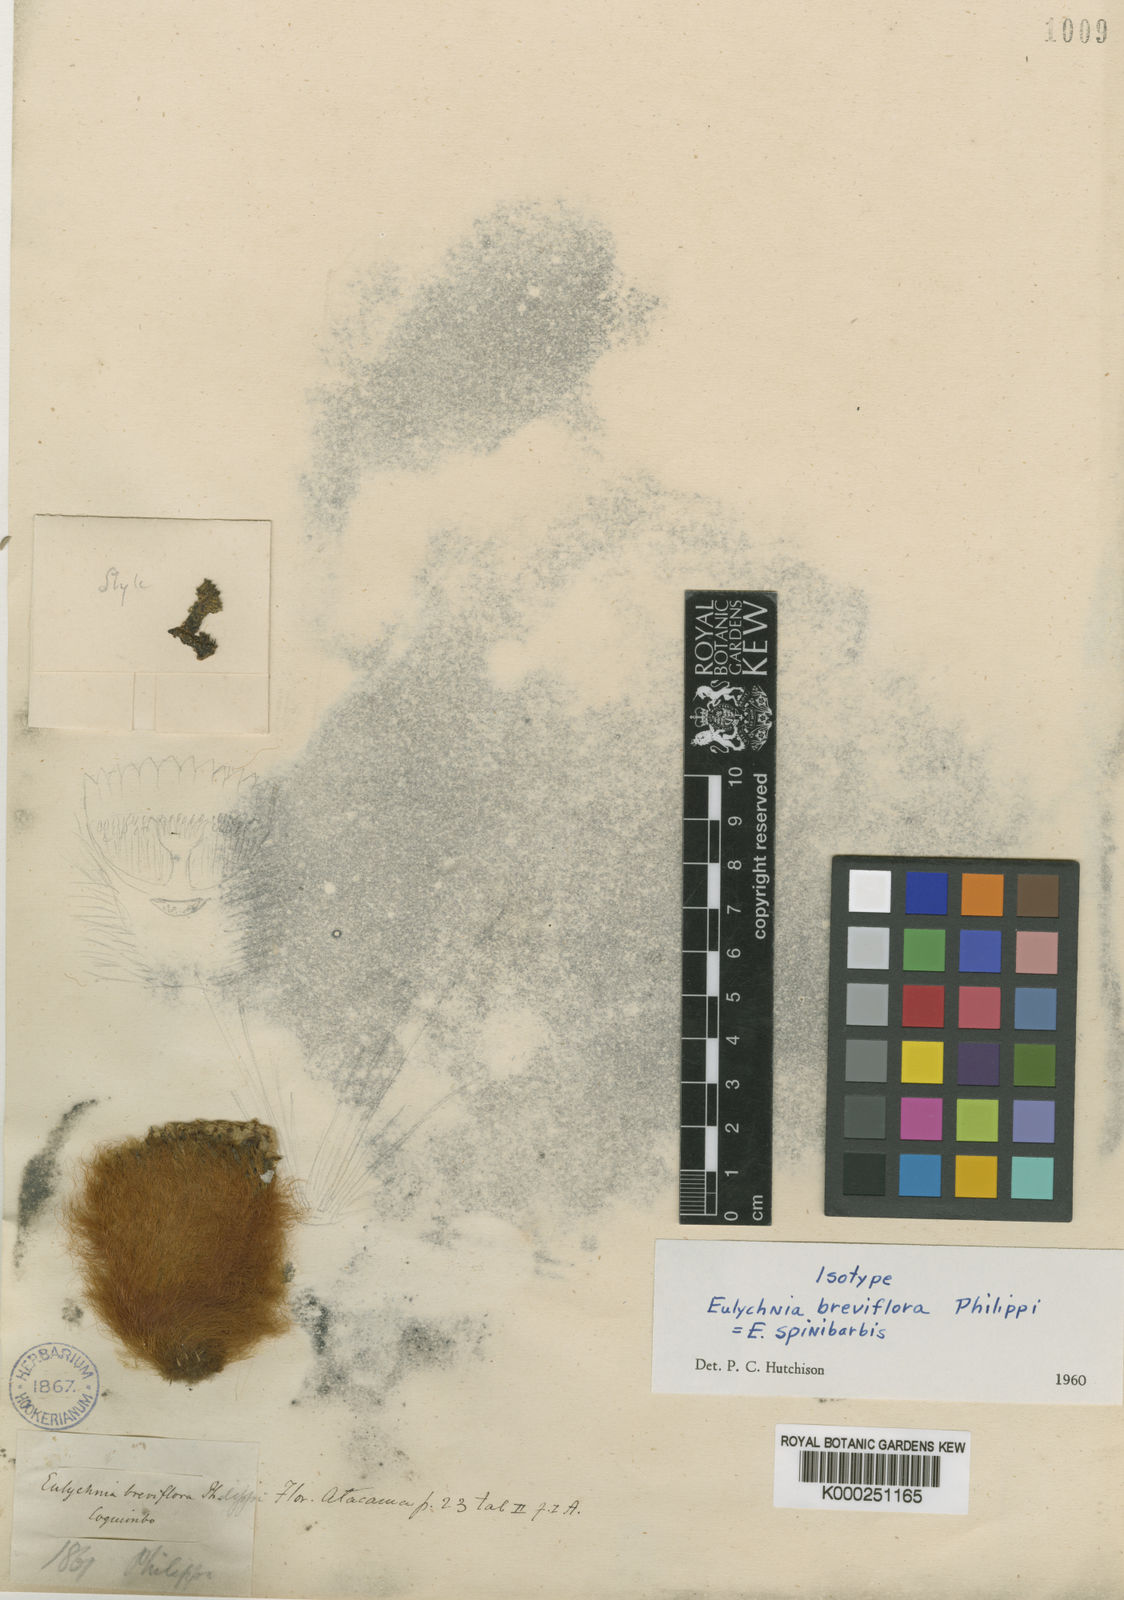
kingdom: Plantae
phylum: Tracheophyta
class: Magnoliopsida
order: Caryophyllales
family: Cactaceae
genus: Eulychnia
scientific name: Eulychnia breviflora
